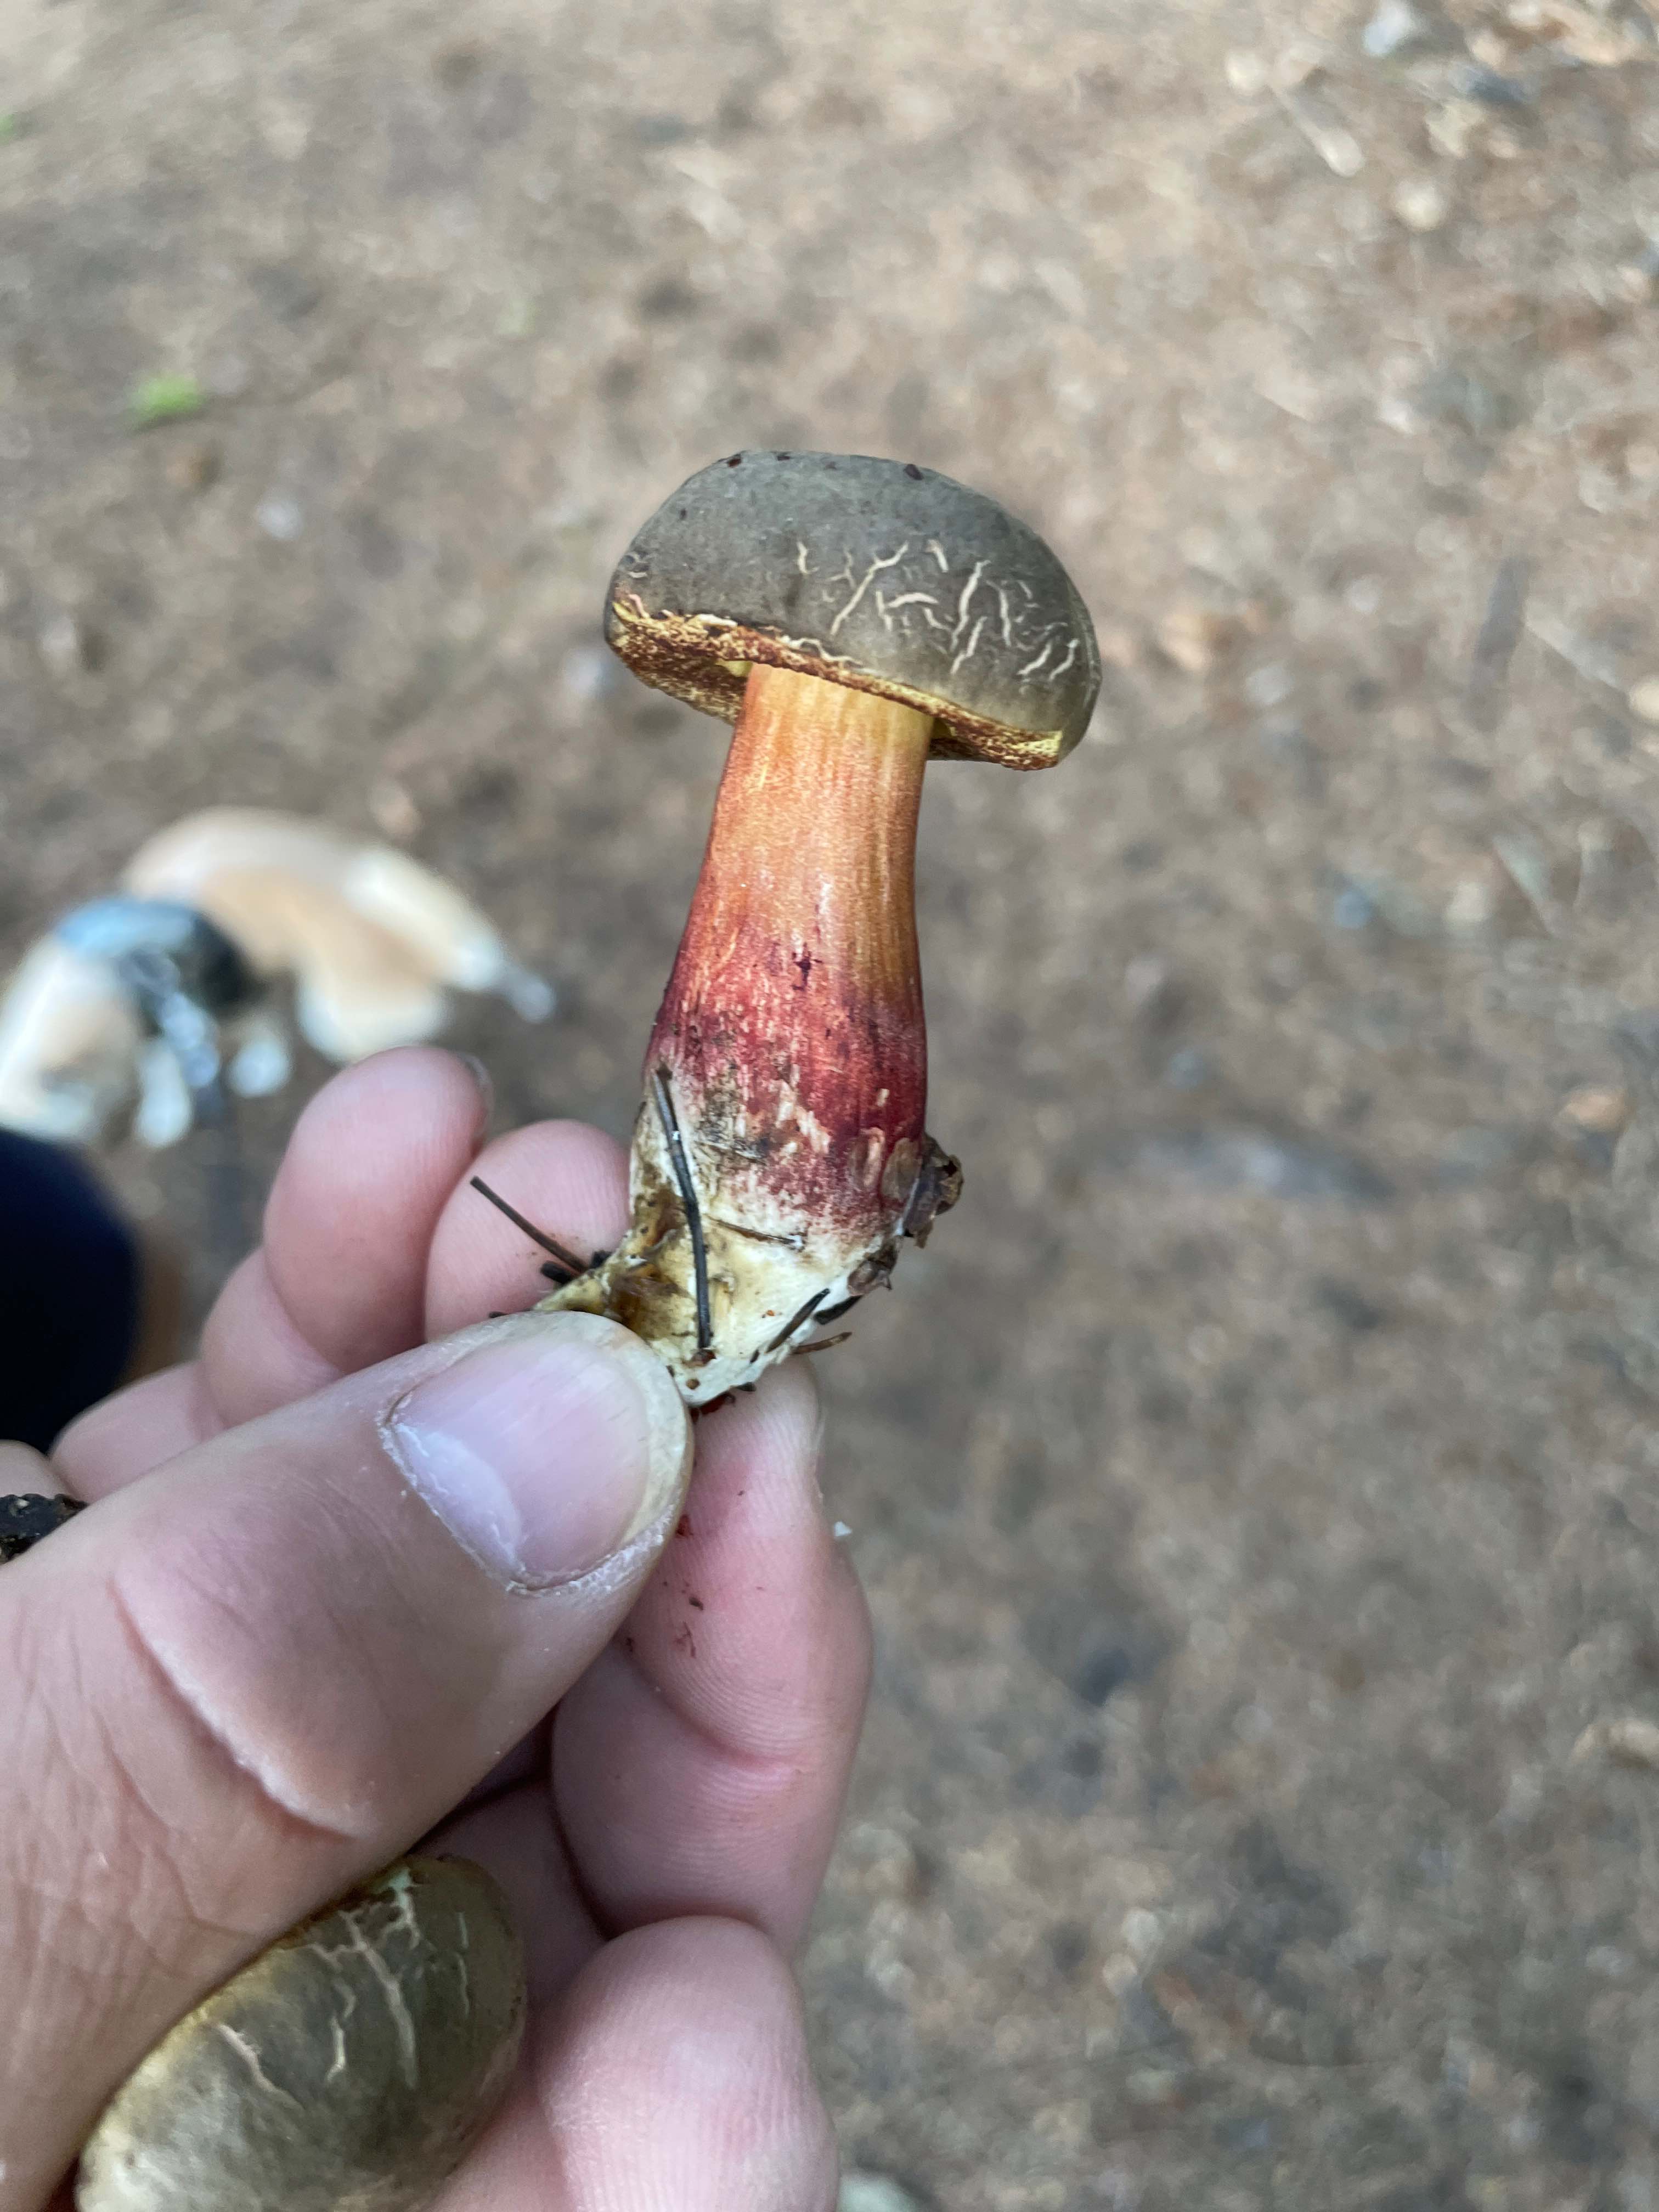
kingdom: Fungi
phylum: Basidiomycota
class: Agaricomycetes
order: Boletales
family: Boletaceae
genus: Xerocomellus
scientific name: Xerocomellus pruinatus
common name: dugget rørhat
